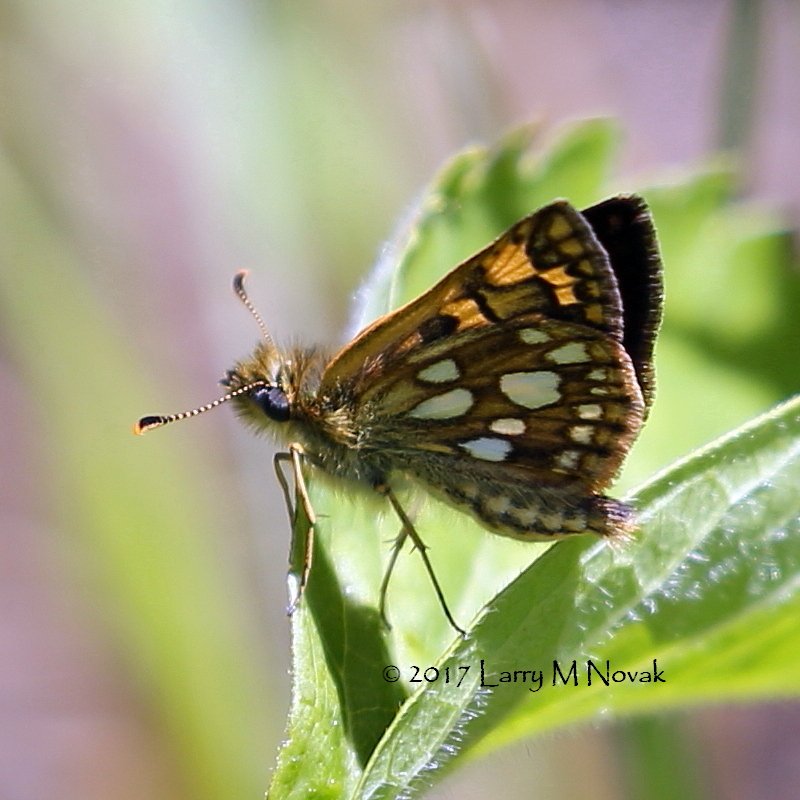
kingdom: Animalia
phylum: Arthropoda
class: Insecta
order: Lepidoptera
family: Hesperiidae
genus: Carterocephalus
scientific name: Carterocephalus palaemon
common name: Chequered Skipper
